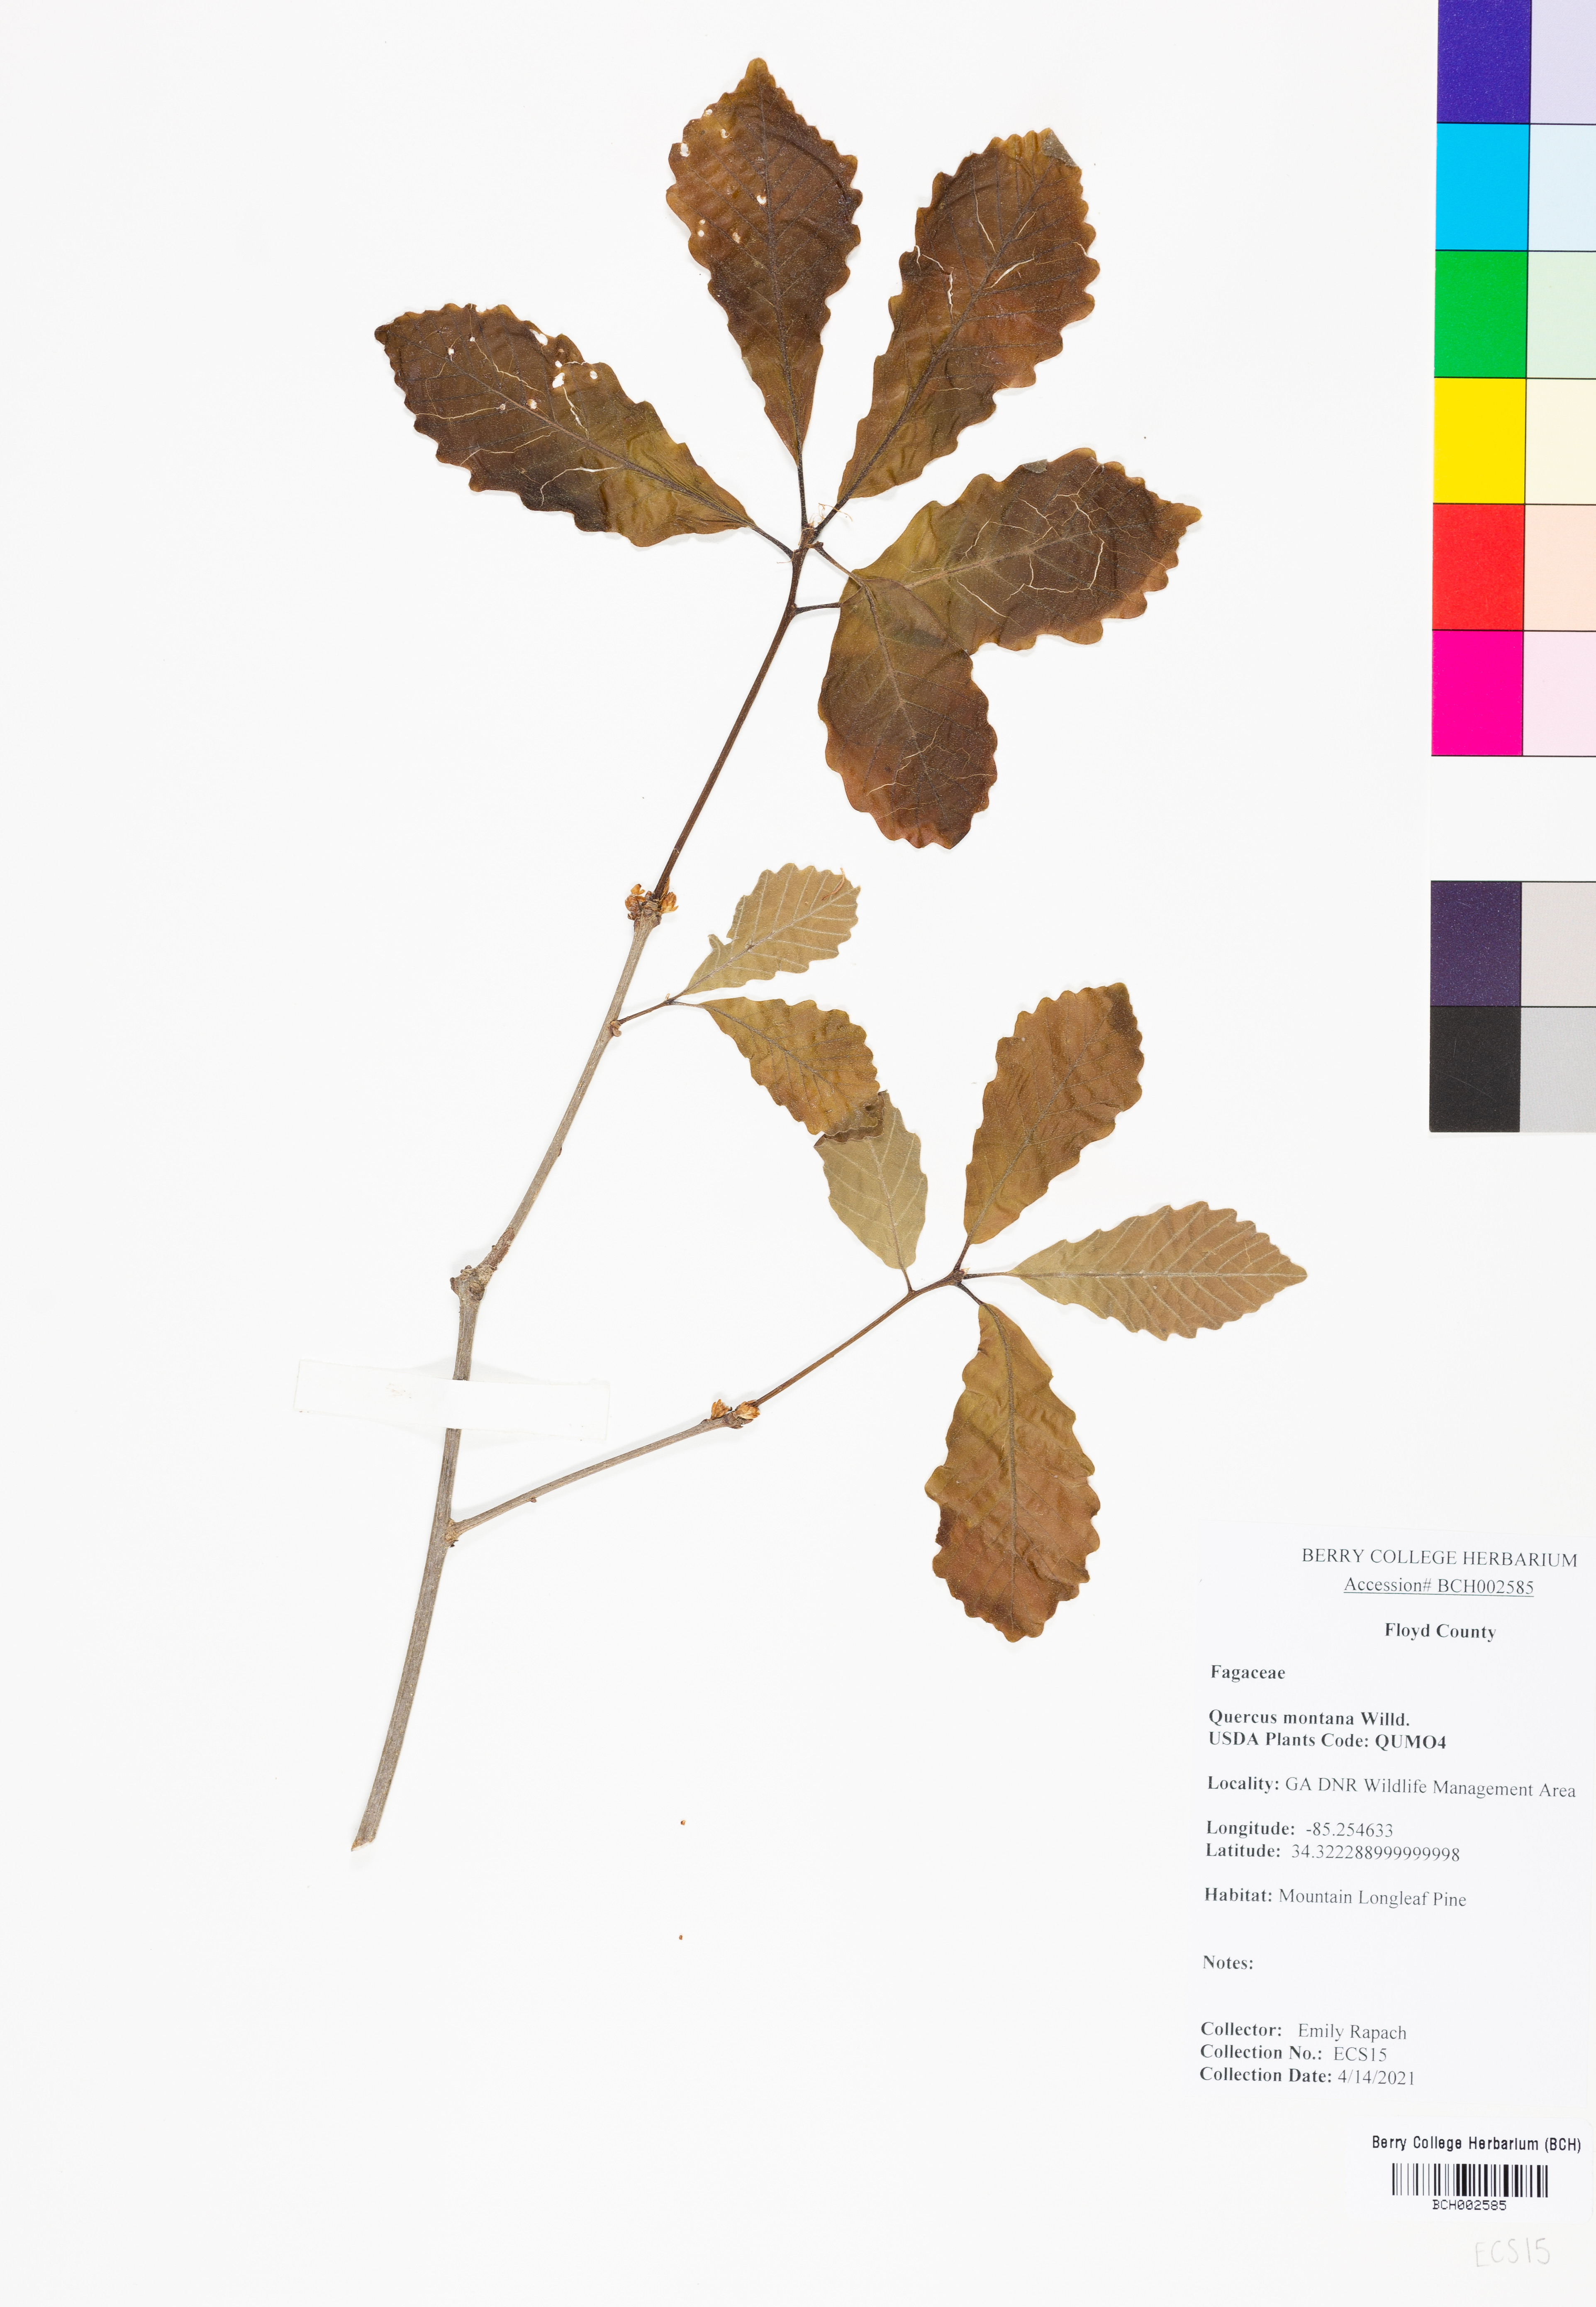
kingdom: Plantae
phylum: Tracheophyta
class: Magnoliopsida
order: Fagales
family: Fagaceae
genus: Quercus
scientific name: Quercus montana
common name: Chestnut oak
